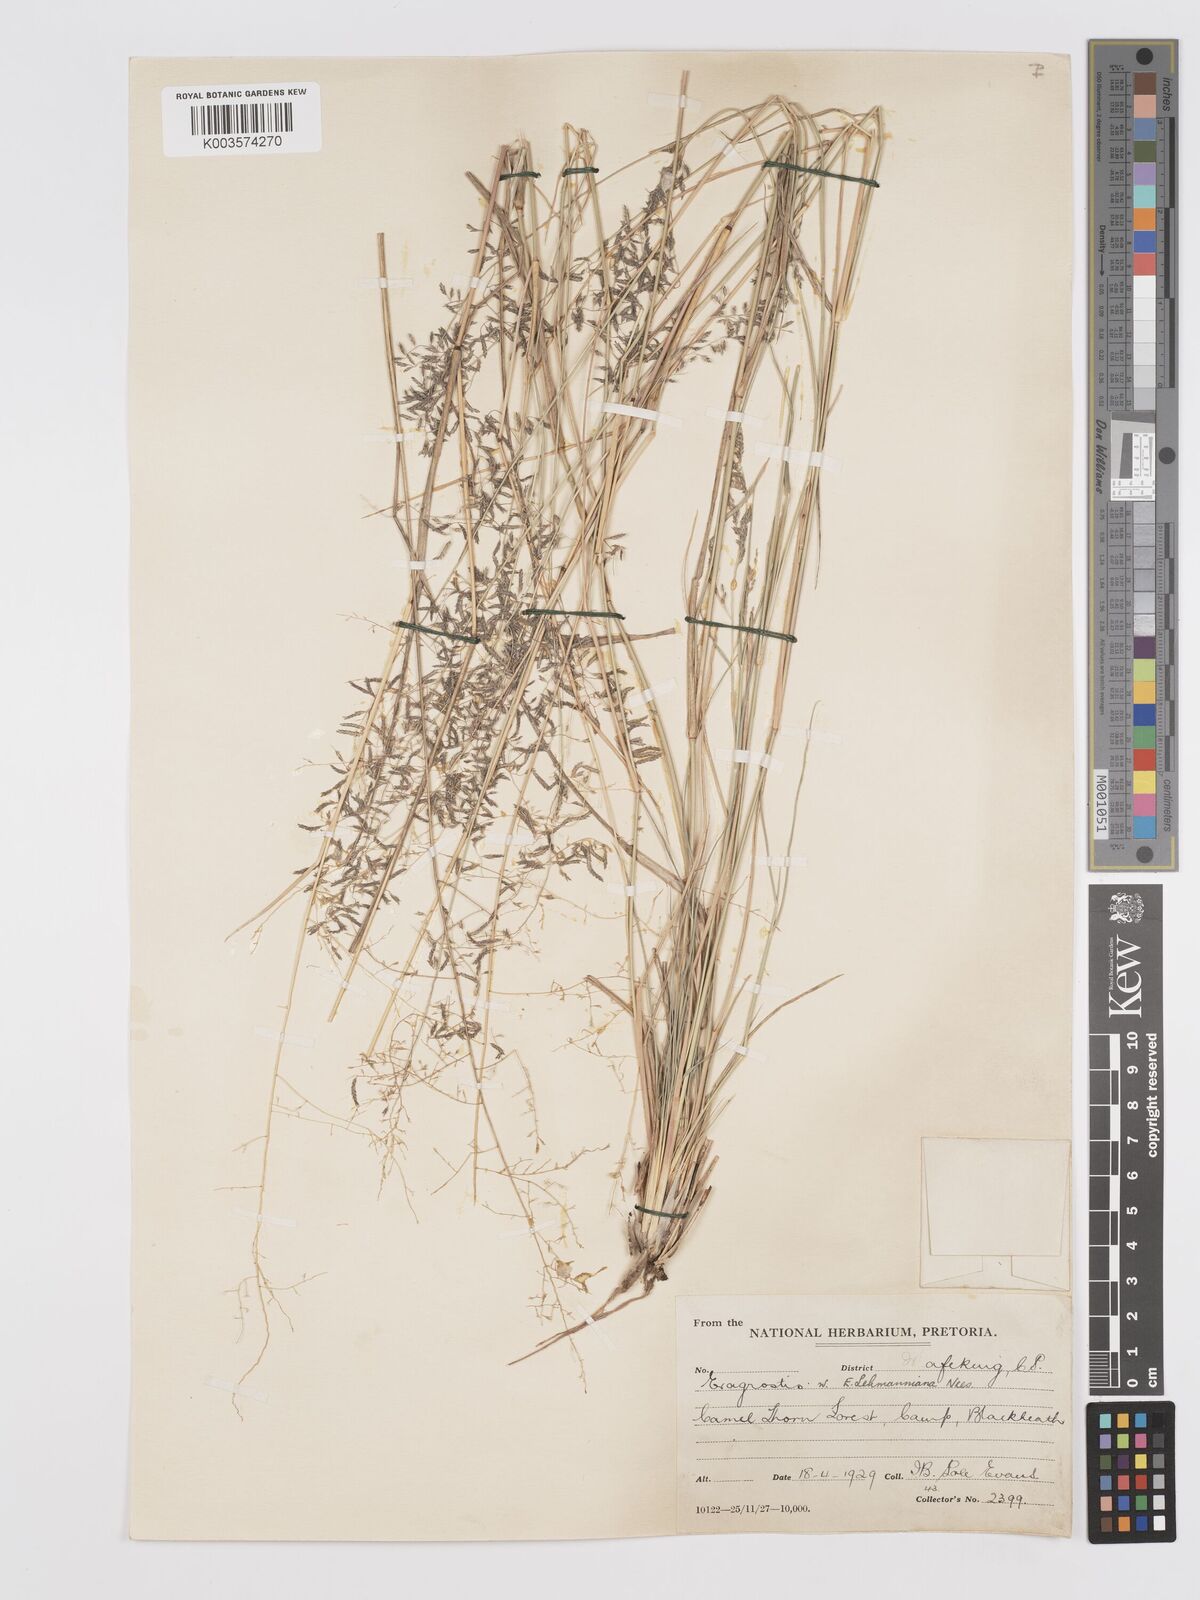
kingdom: Plantae
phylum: Tracheophyta
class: Liliopsida
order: Poales
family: Poaceae
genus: Eragrostis
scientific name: Eragrostis micrantha
